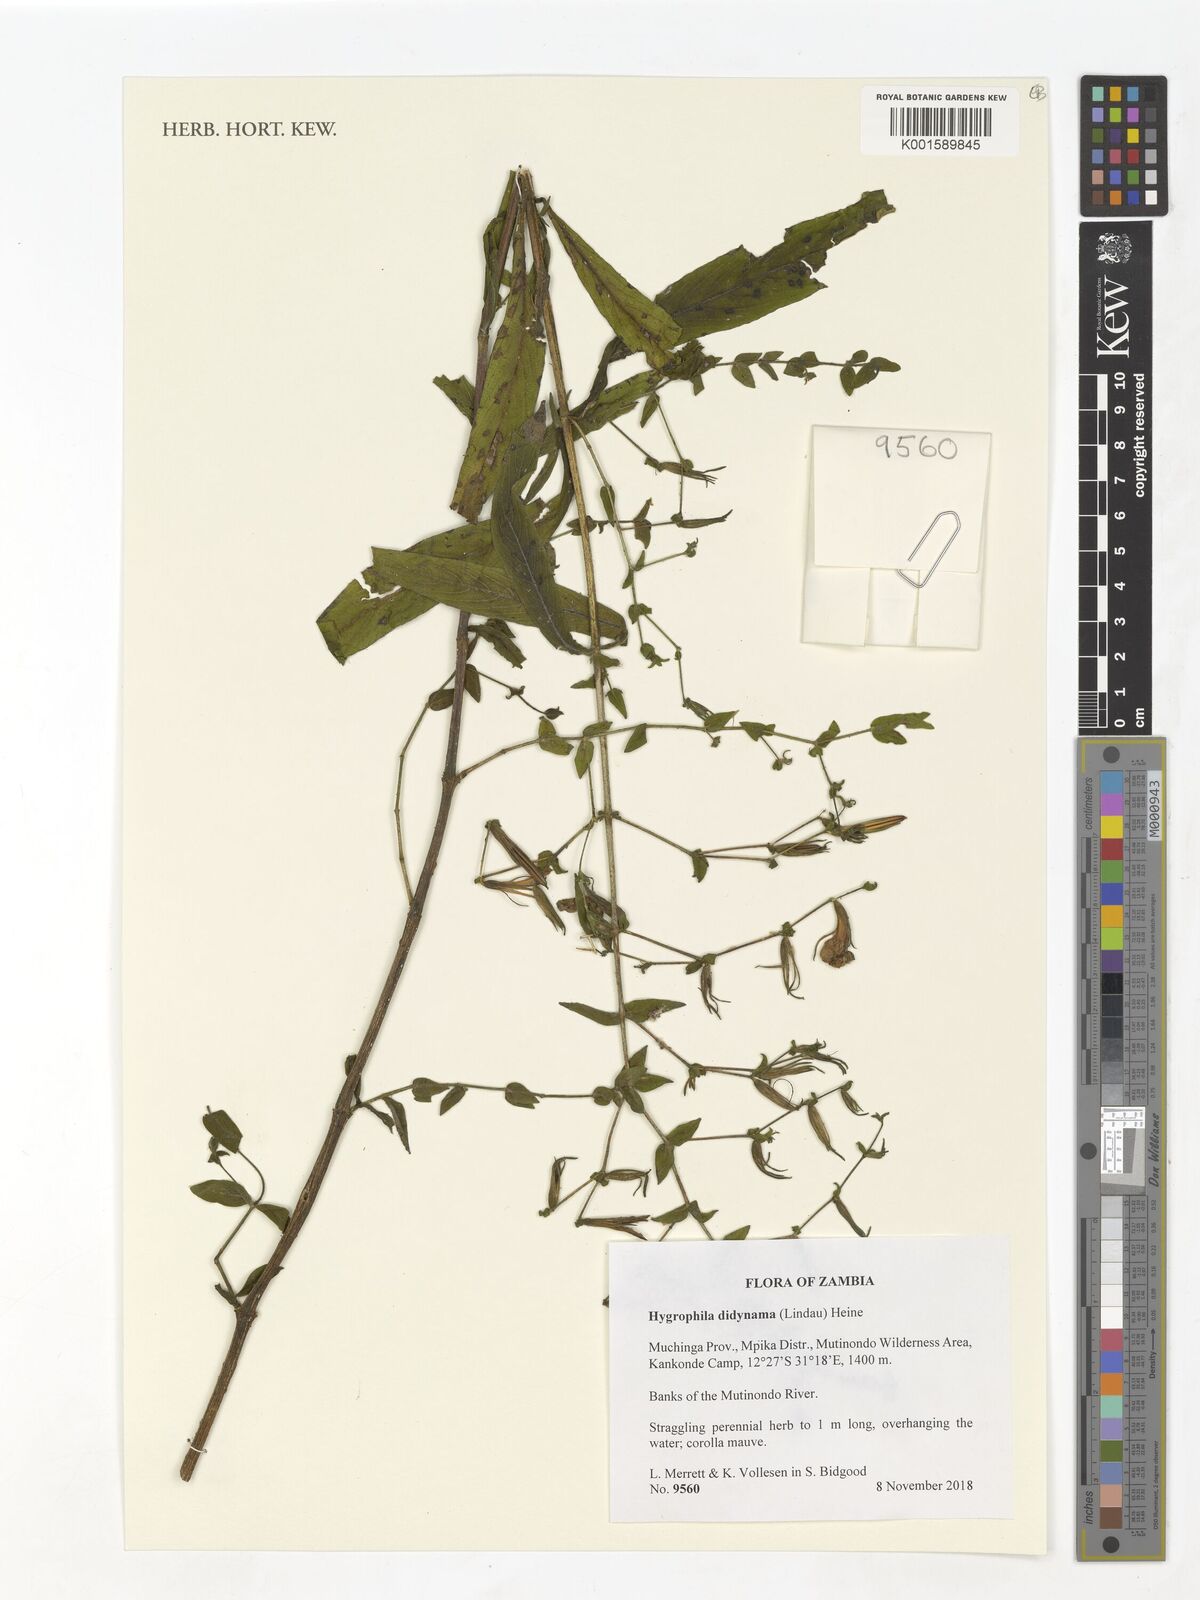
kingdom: Plantae
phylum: Tracheophyta
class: Magnoliopsida
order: Lamiales
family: Acanthaceae
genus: Hygrophila
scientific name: Hygrophila didynama
